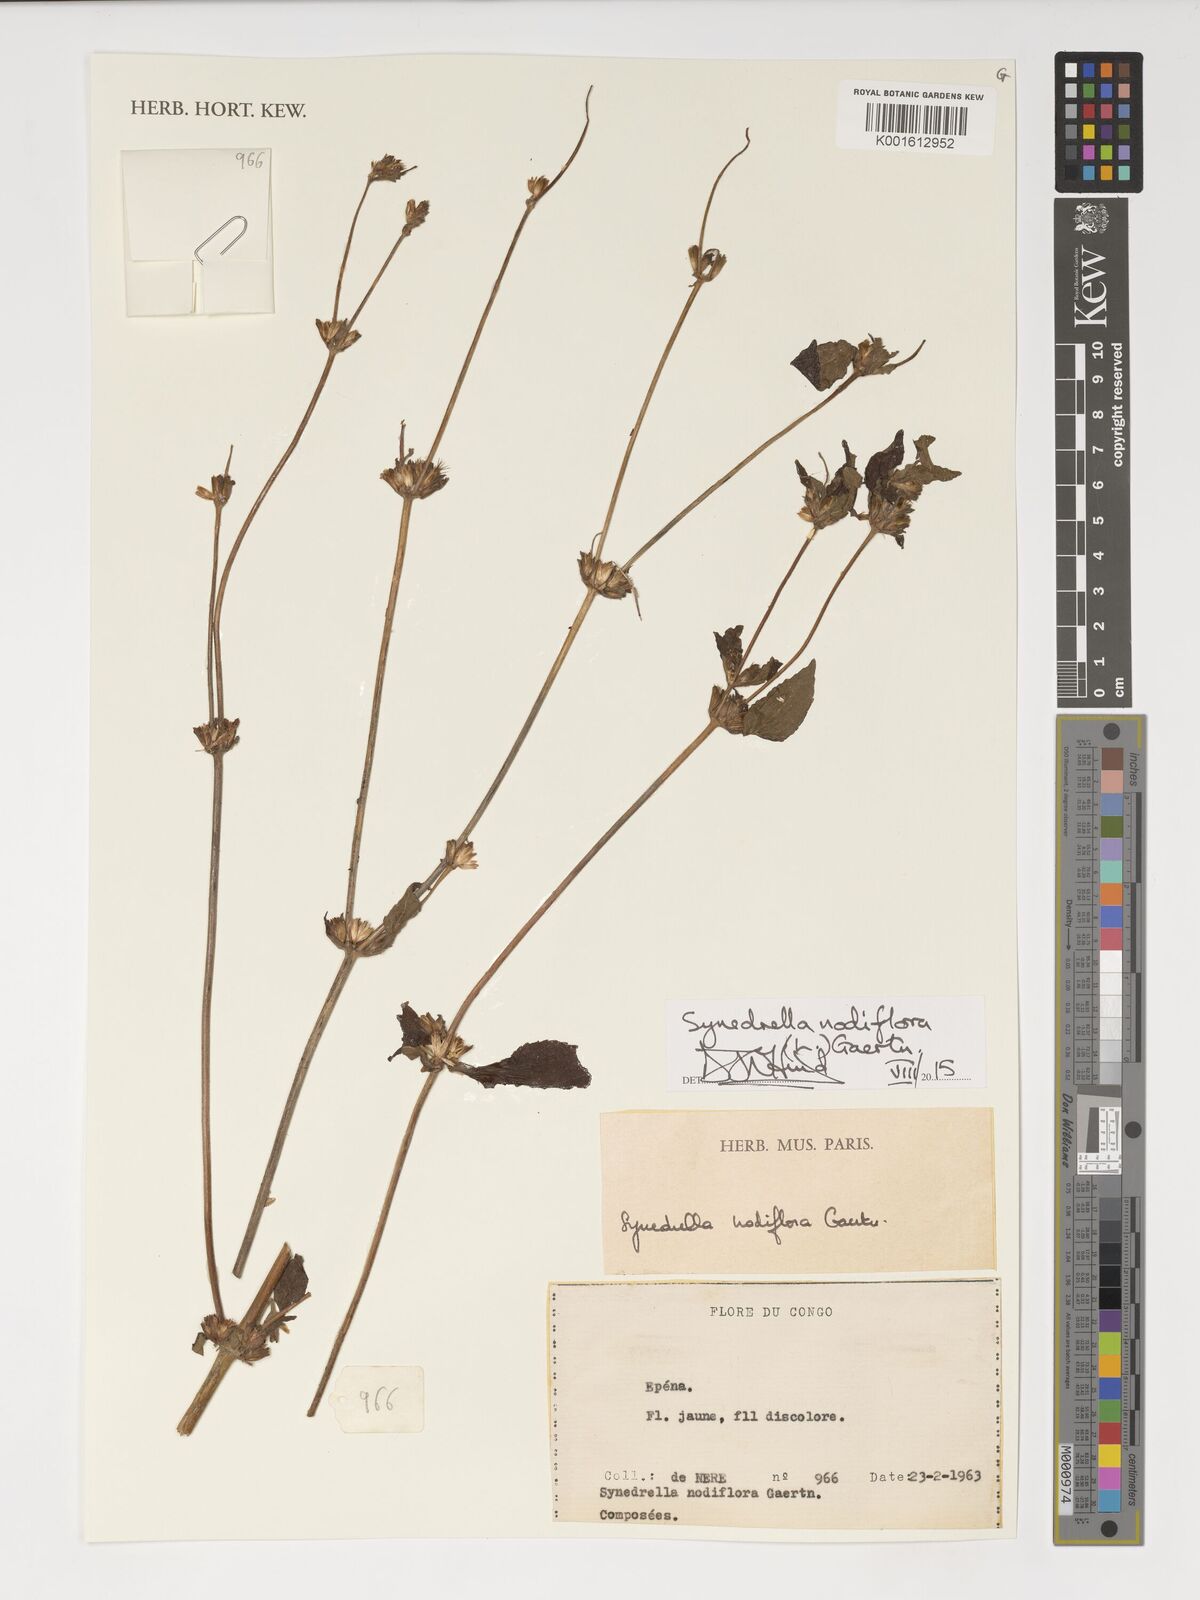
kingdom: Plantae
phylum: Tracheophyta
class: Magnoliopsida
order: Asterales
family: Asteraceae
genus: Synedrella
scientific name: Synedrella nodiflora
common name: Nodeweed
